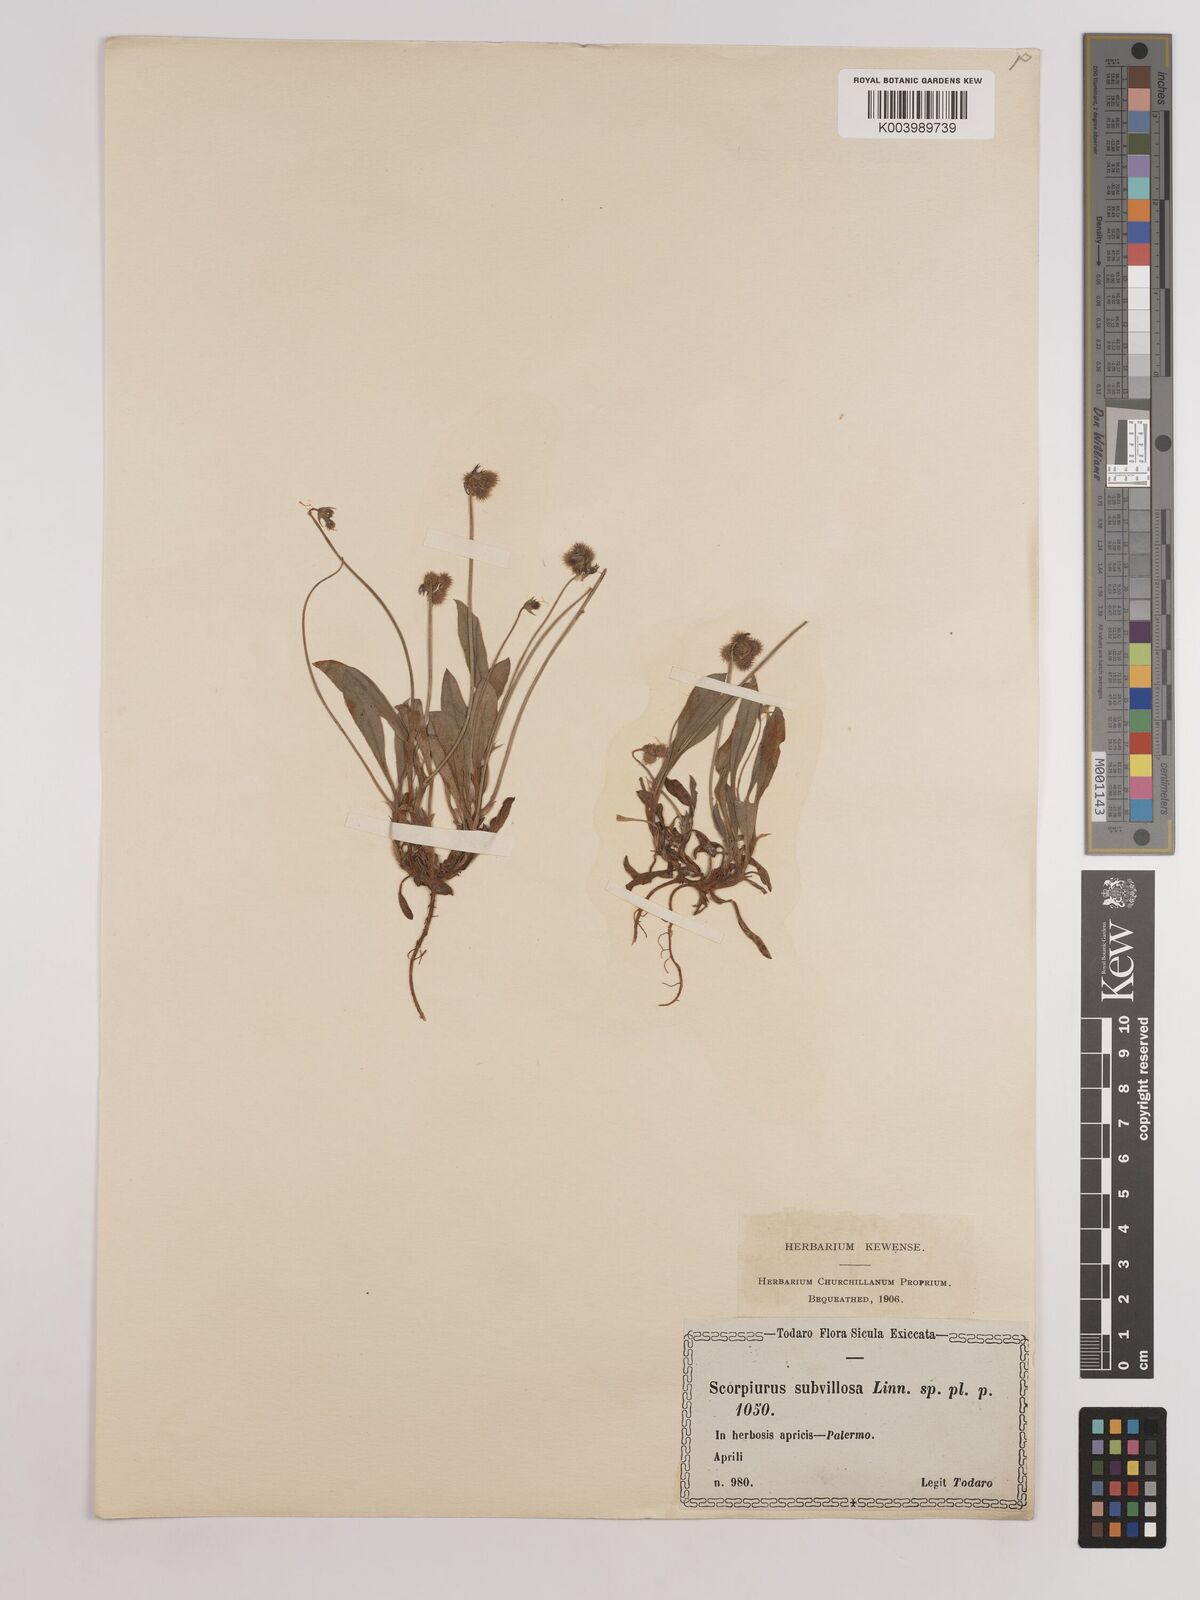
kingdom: Plantae
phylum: Tracheophyta
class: Magnoliopsida
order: Fabales
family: Fabaceae
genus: Scorpiurus
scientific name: Scorpiurus muricatus
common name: Caterpillar-plant
